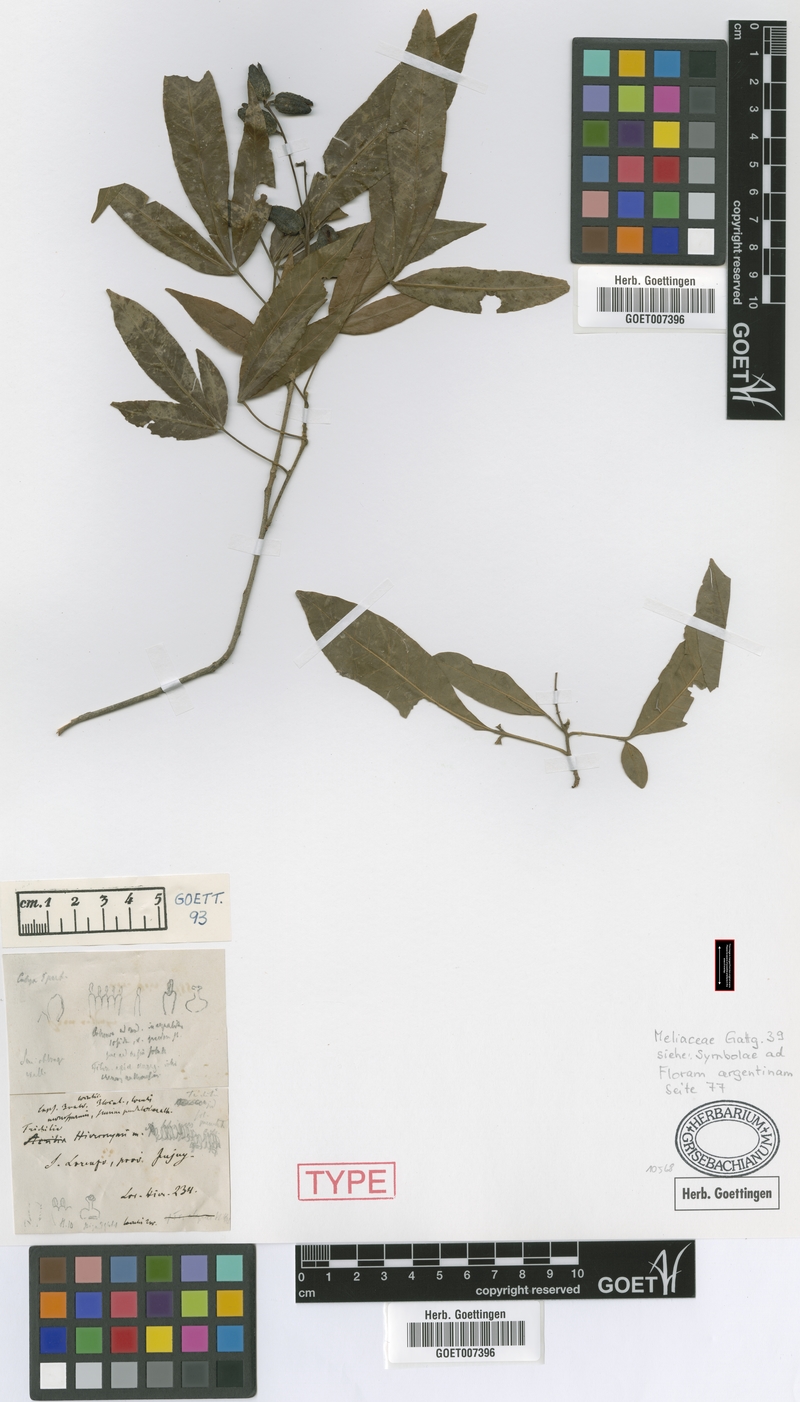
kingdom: Plantae
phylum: Tracheophyta
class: Magnoliopsida
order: Sapindales
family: Meliaceae
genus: Trichilia
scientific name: Trichilia claussenii
